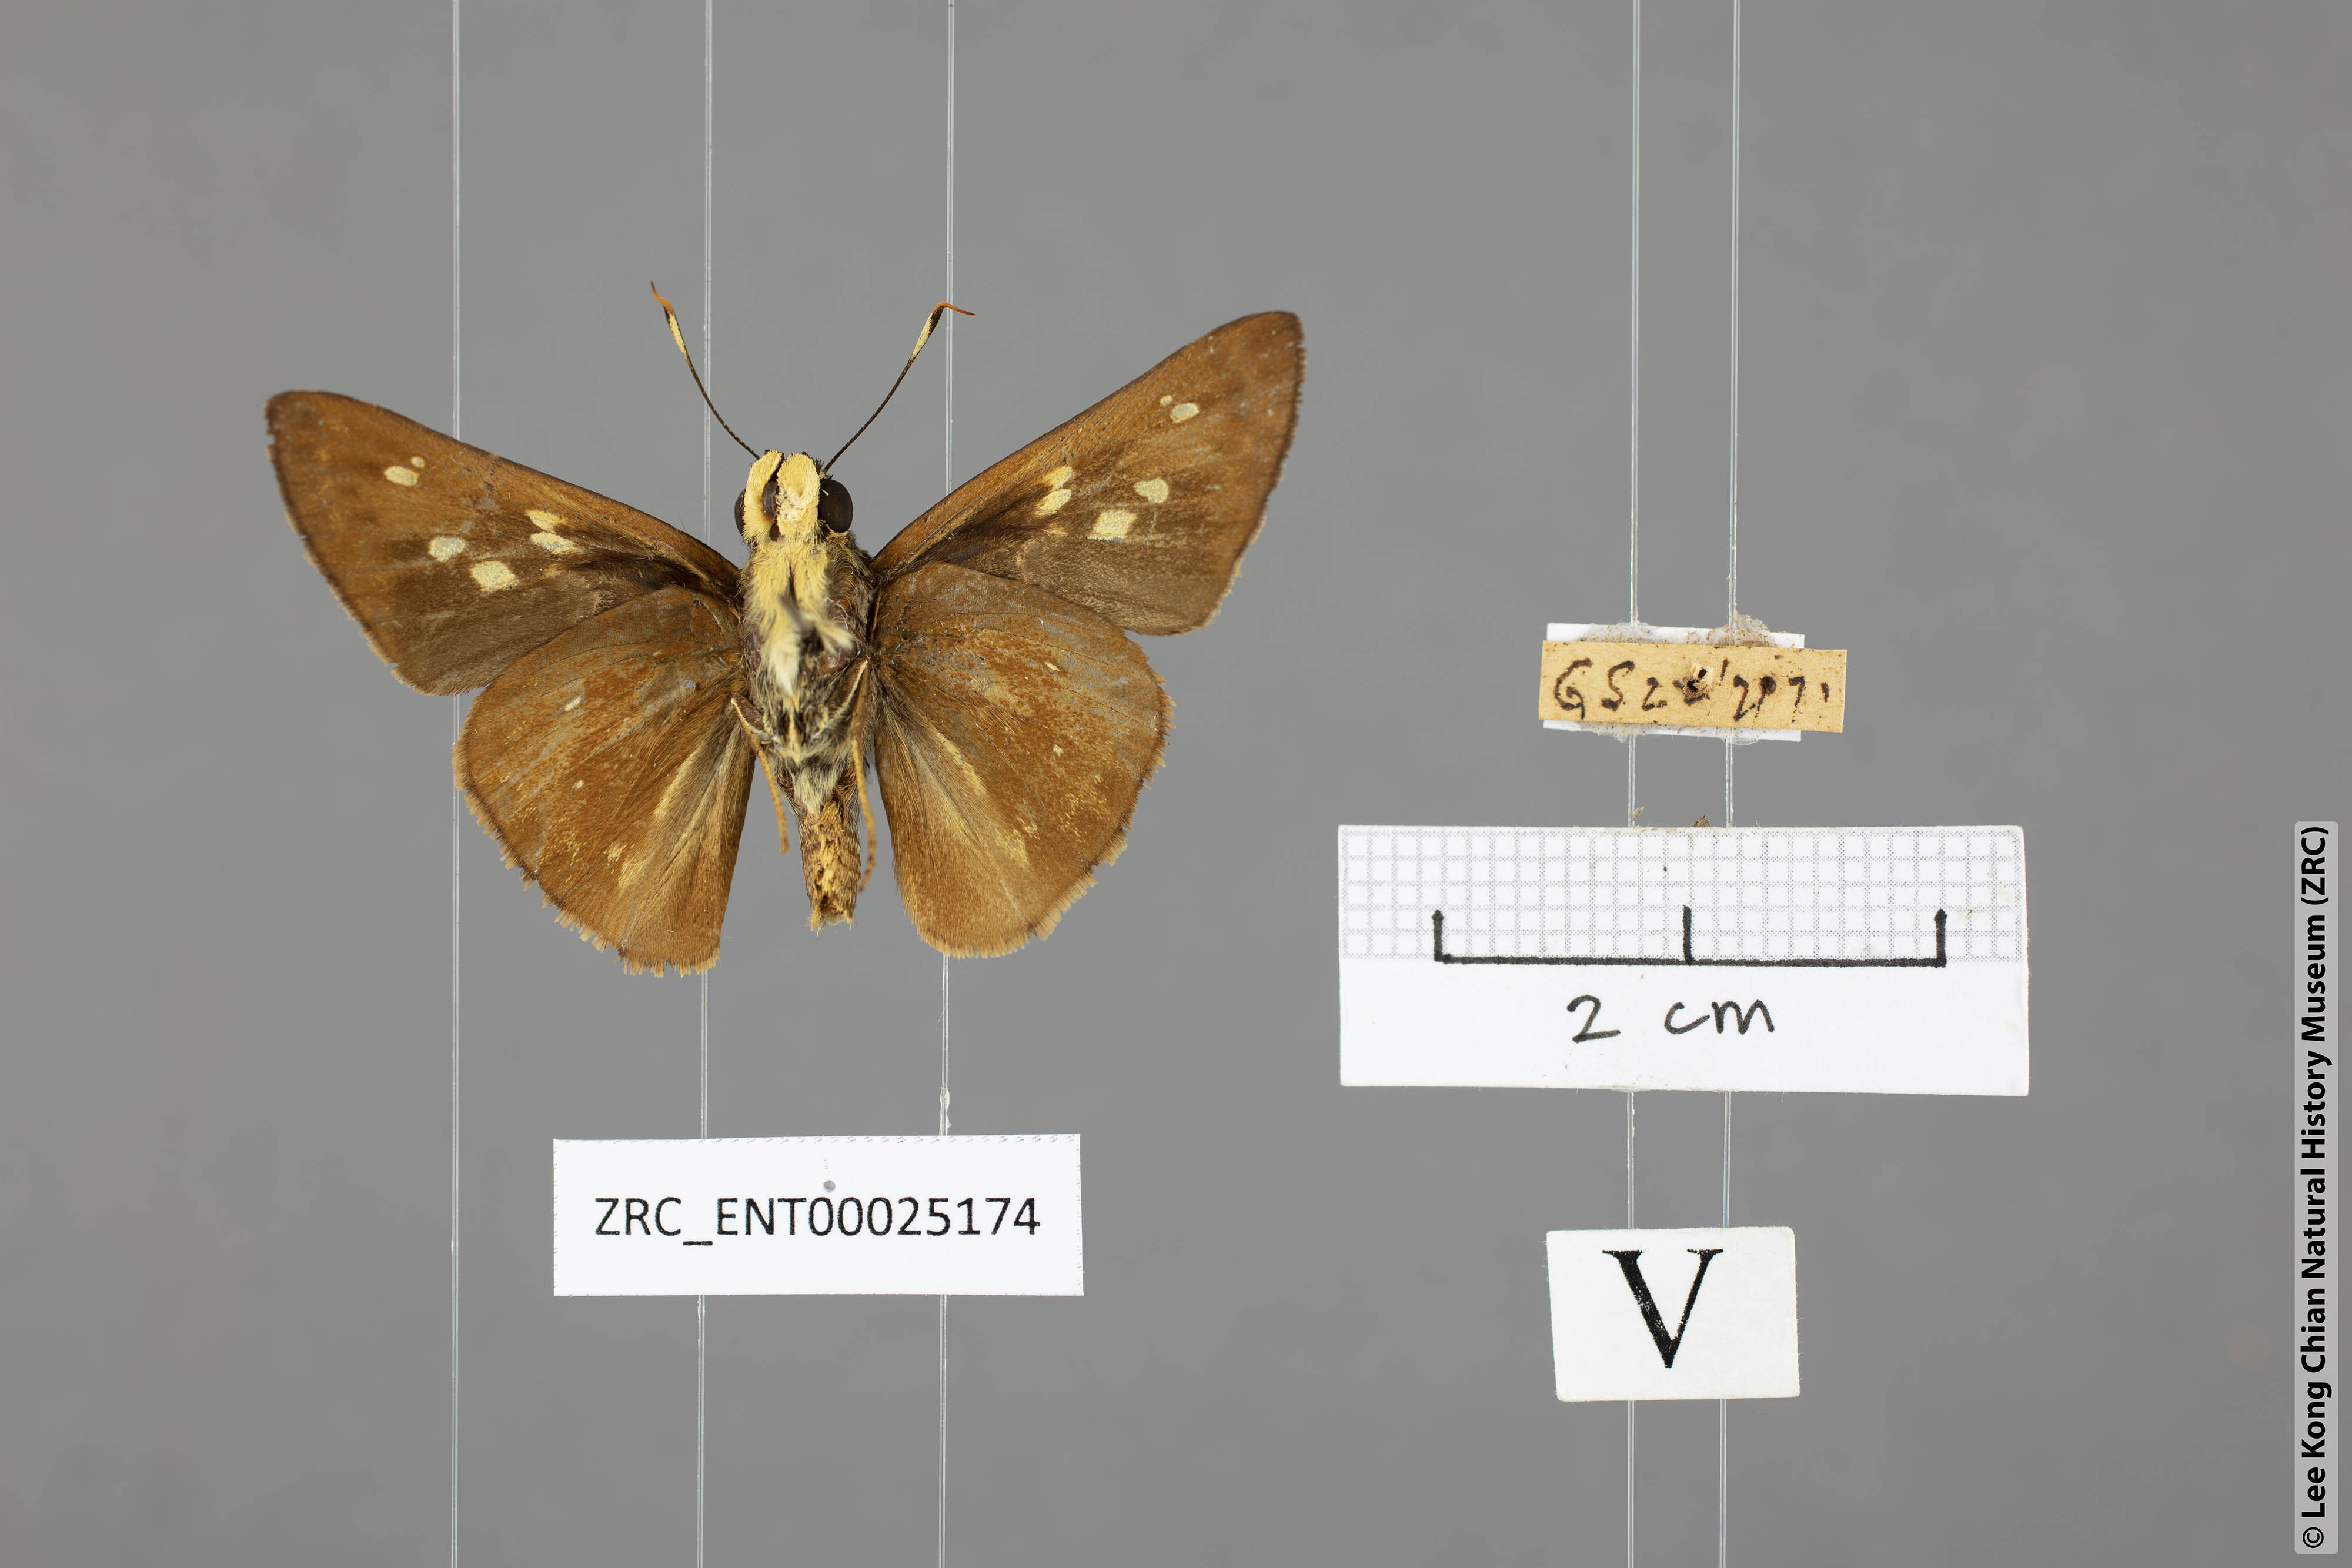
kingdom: Animalia
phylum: Arthropoda
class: Insecta
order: Lepidoptera
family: Hesperiidae
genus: Pithauria
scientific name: Pithauria marsena
